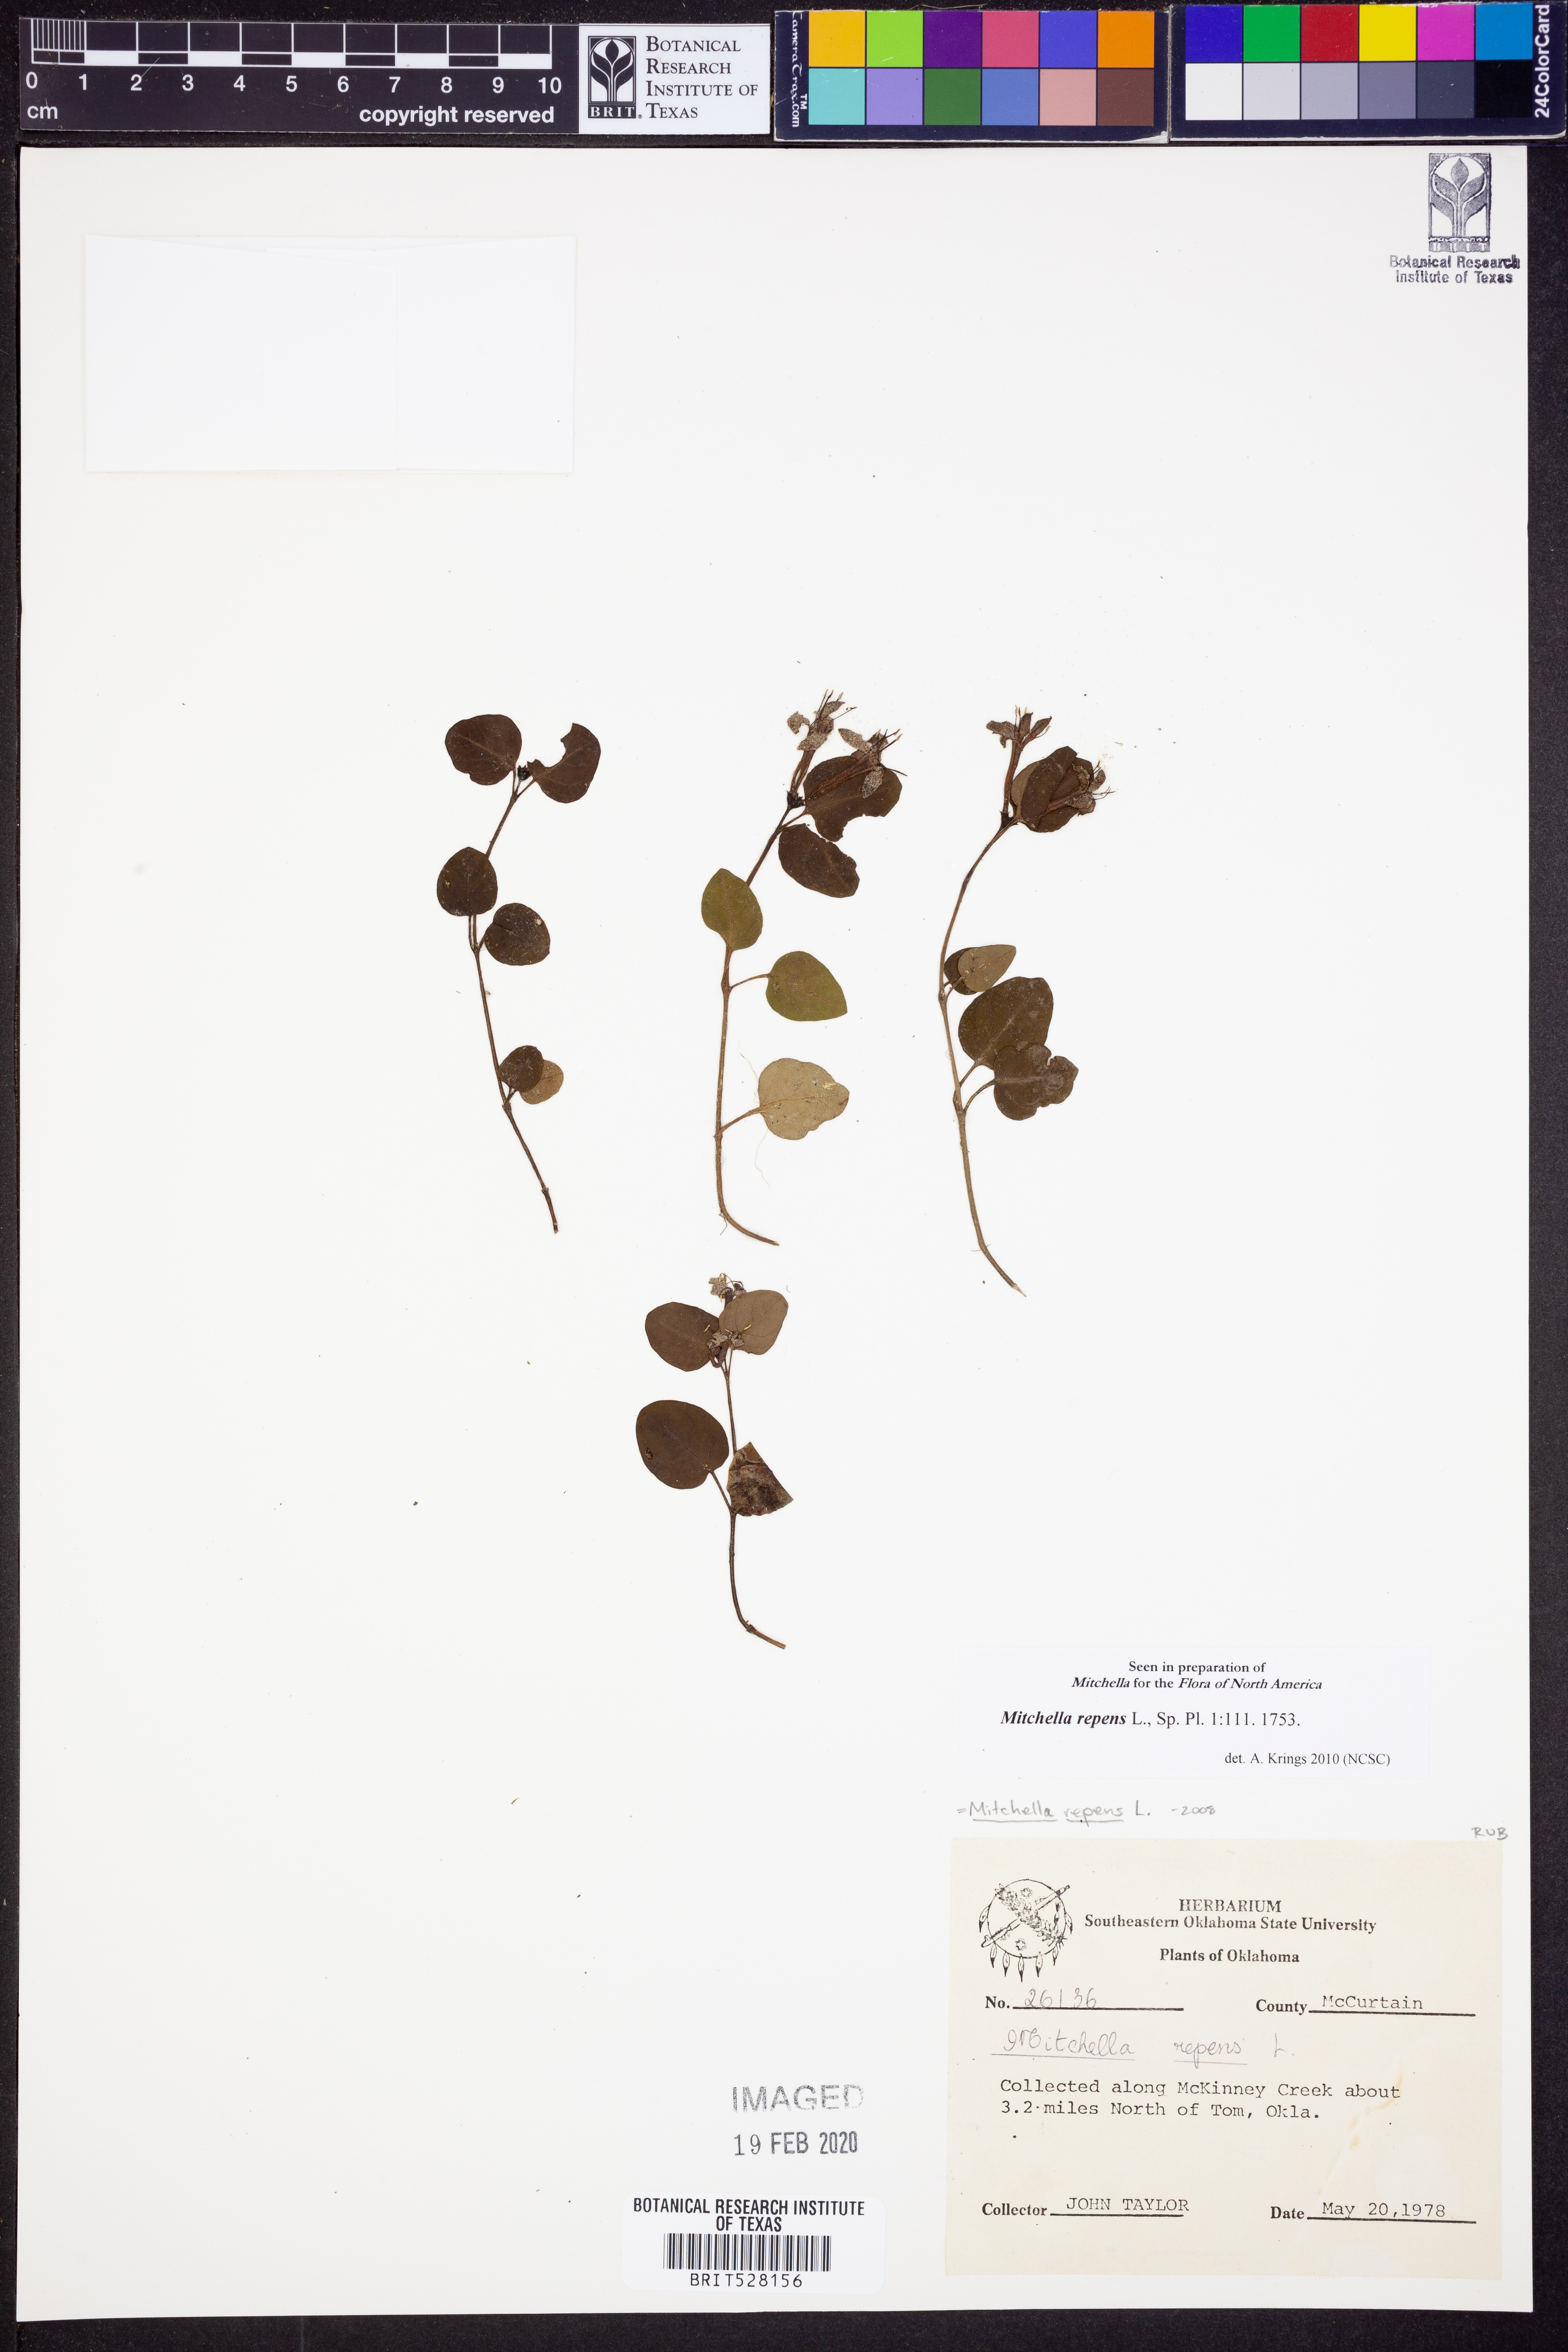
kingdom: Plantae
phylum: Tracheophyta
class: Magnoliopsida
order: Gentianales
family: Rubiaceae
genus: Mitchella
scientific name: Mitchella repens
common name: Partridge-berry
